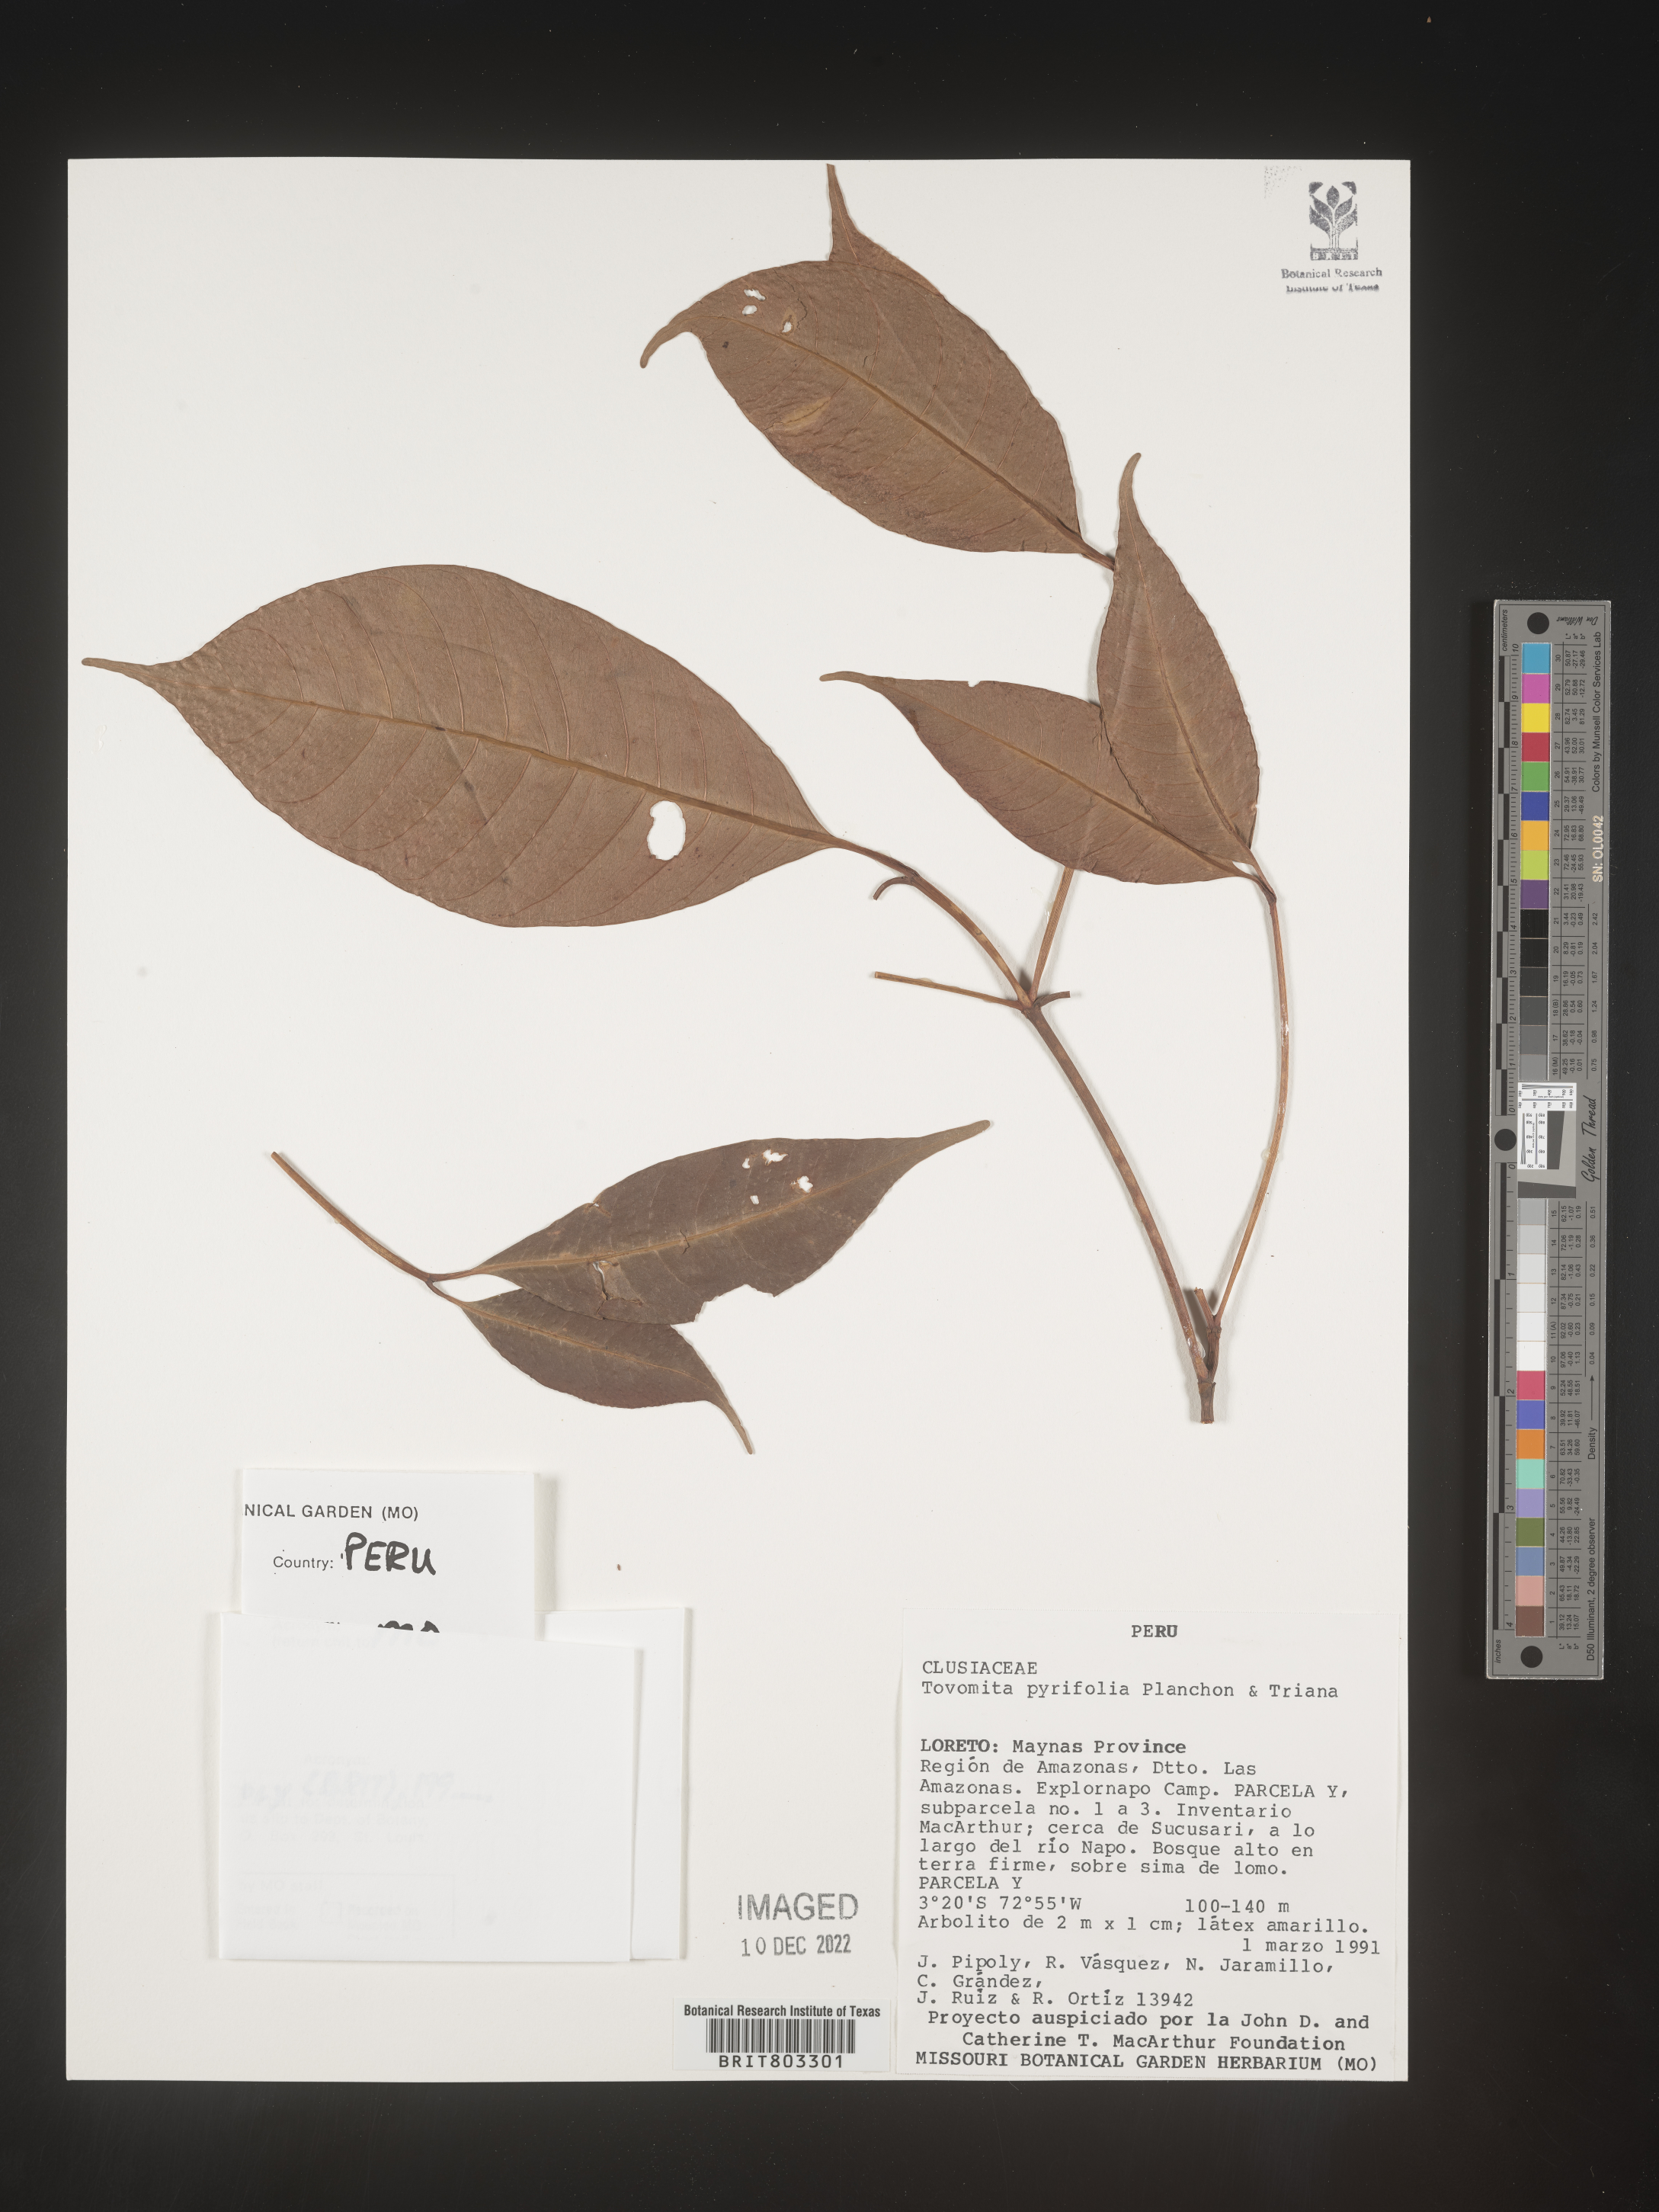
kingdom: Plantae
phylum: Tracheophyta
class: Magnoliopsida
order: Malpighiales
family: Clusiaceae
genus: Tovomita
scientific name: Tovomita
